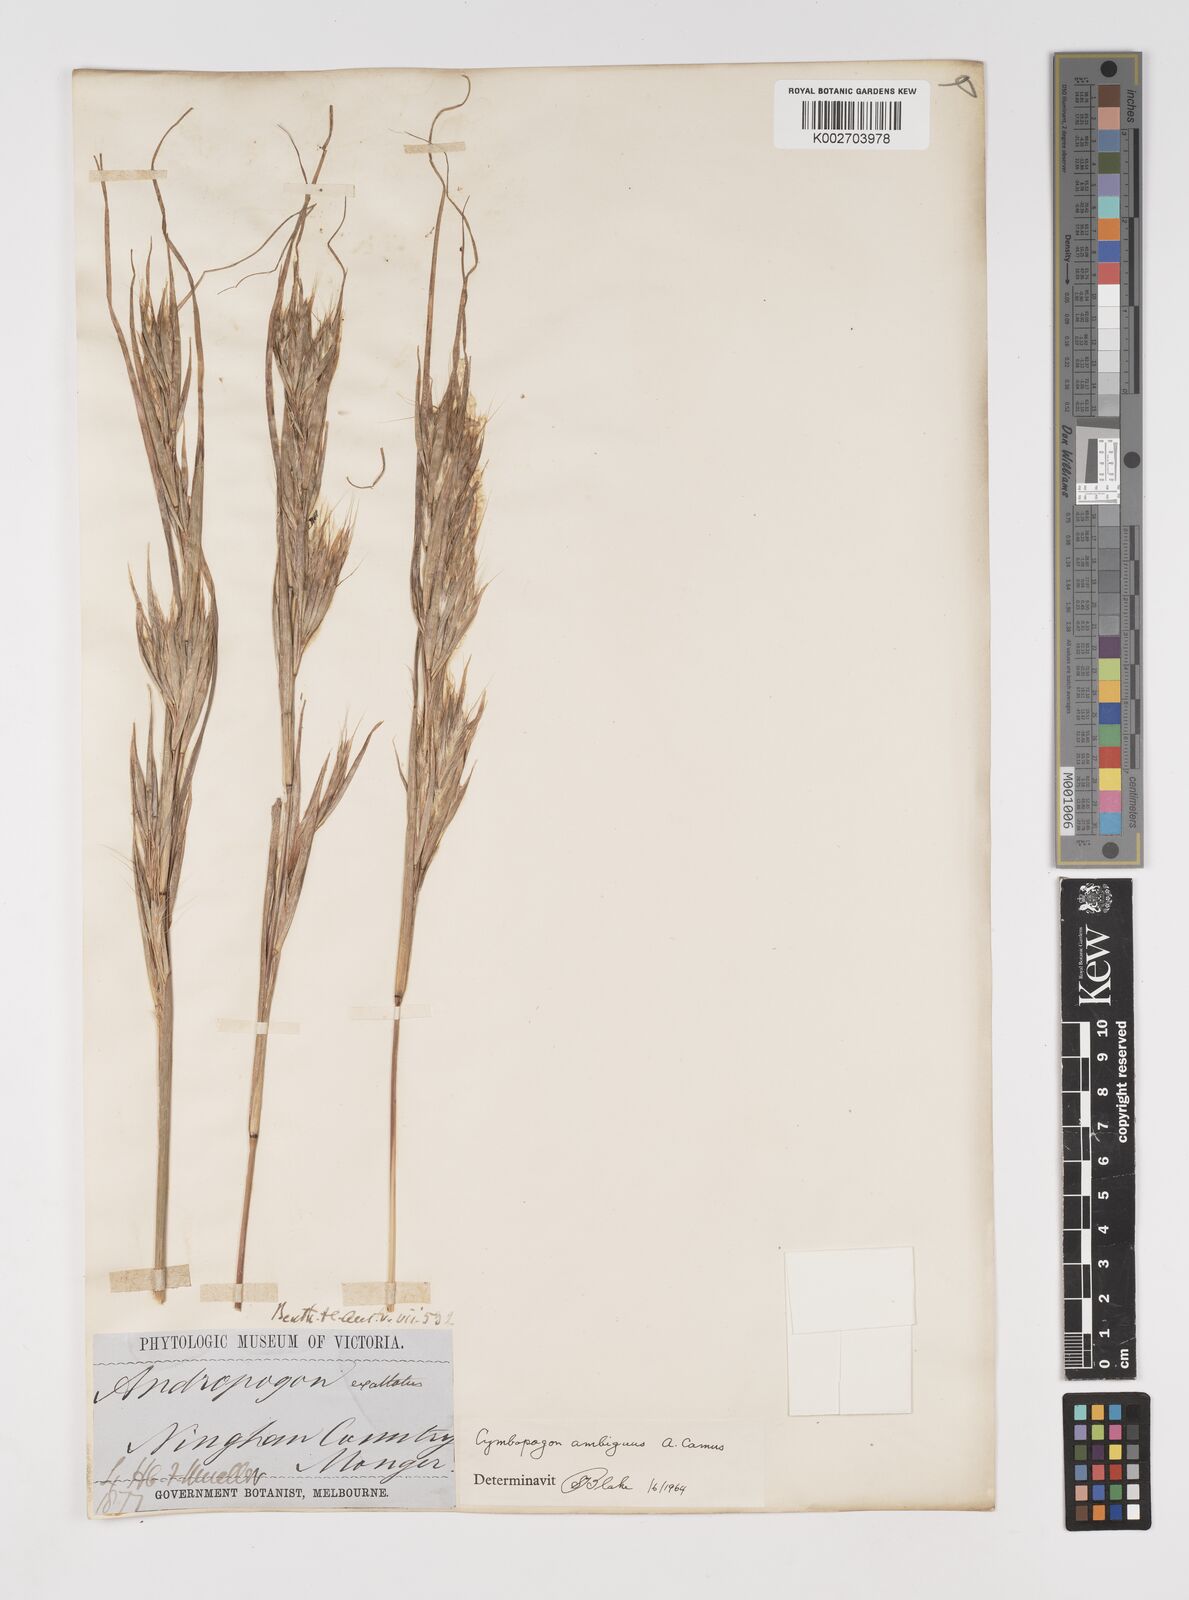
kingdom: Plantae
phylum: Tracheophyta
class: Liliopsida
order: Poales
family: Poaceae
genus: Cymbopogon
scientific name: Cymbopogon ambiguus
